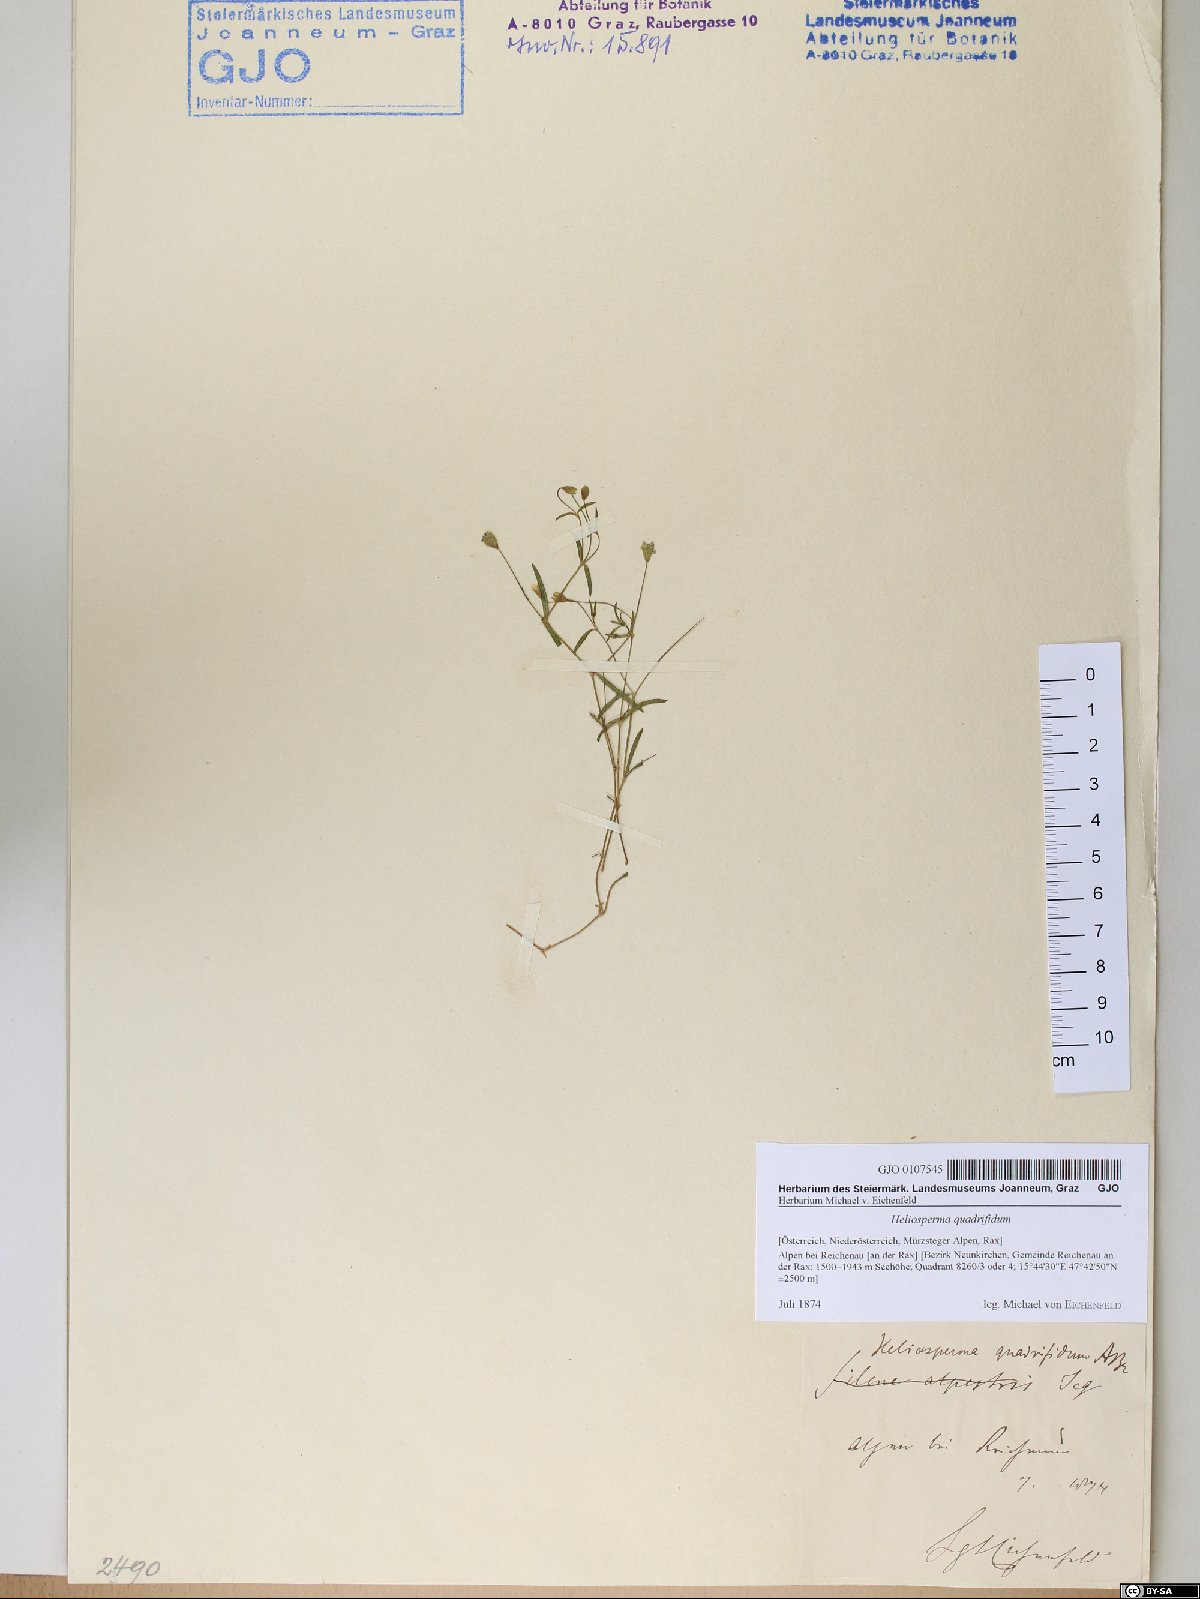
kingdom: Plantae
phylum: Tracheophyta
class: Magnoliopsida
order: Caryophyllales
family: Caryophyllaceae
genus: Heliosperma
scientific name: Heliosperma alpestre
